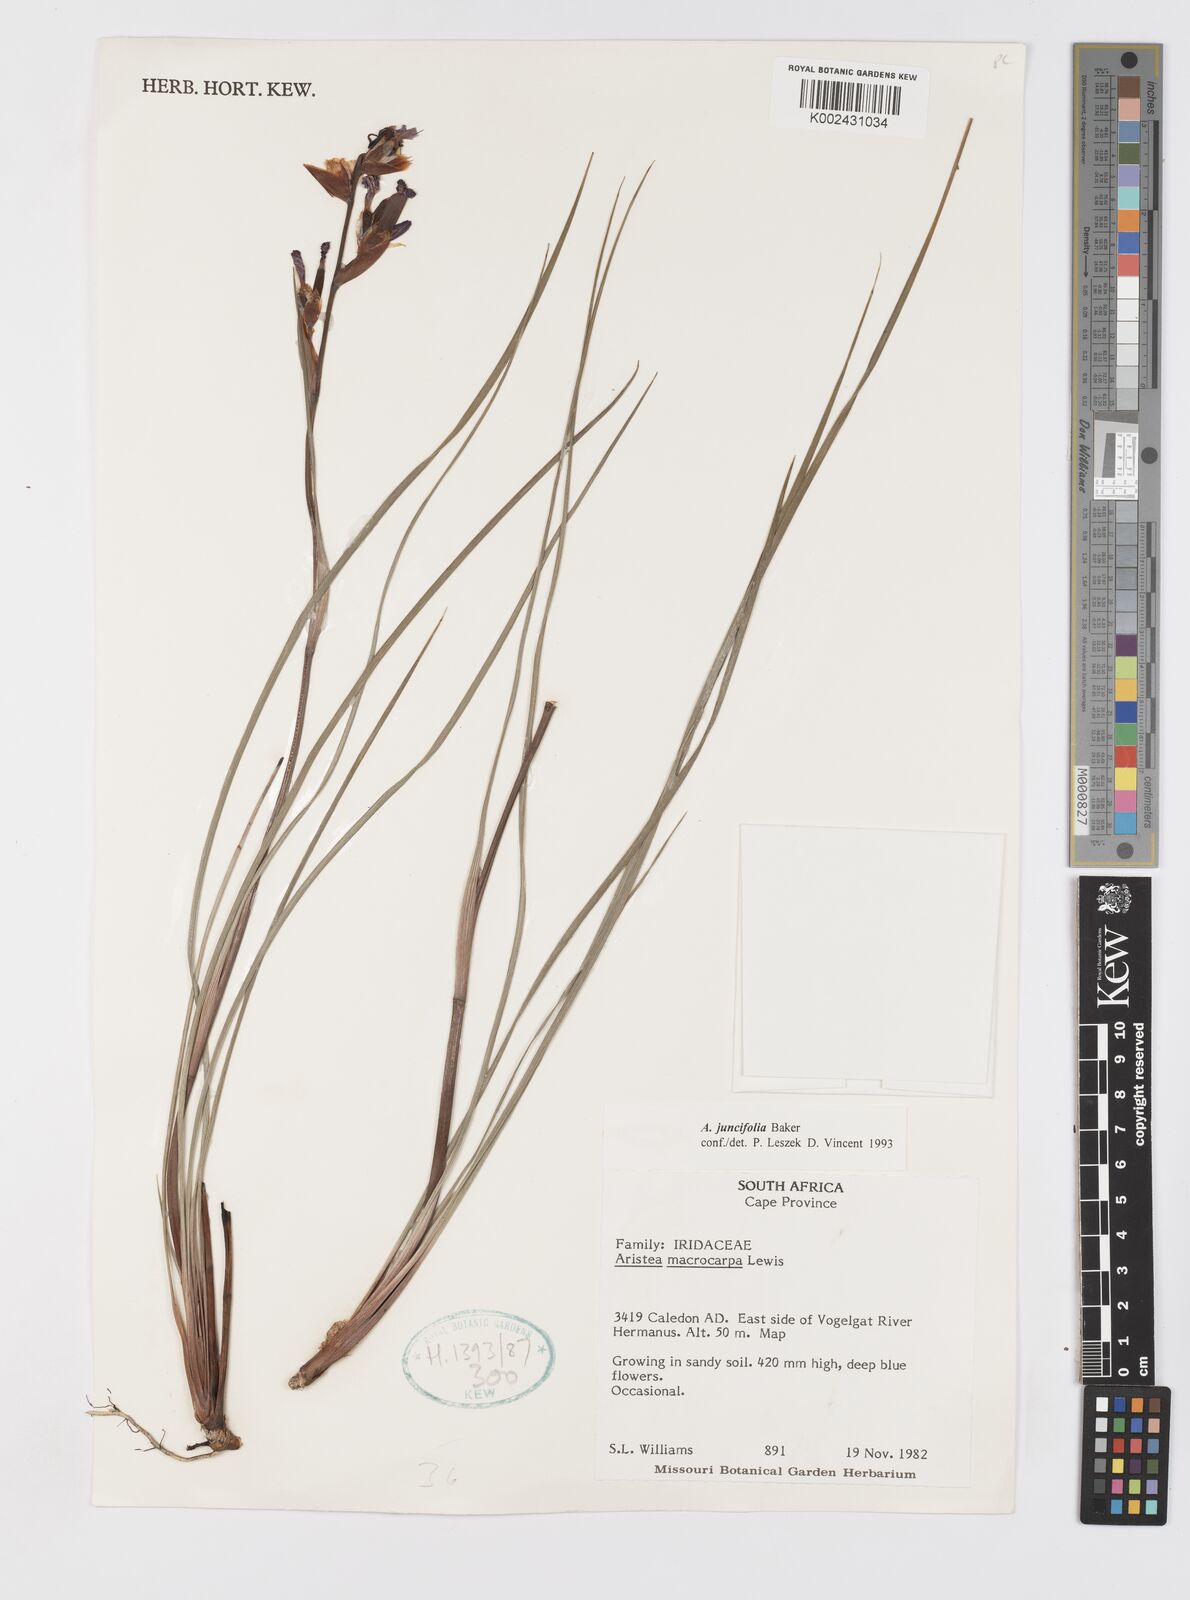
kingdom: Plantae
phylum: Tracheophyta
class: Liliopsida
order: Asparagales
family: Iridaceae
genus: Aristea
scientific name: Aristea juncifolia
